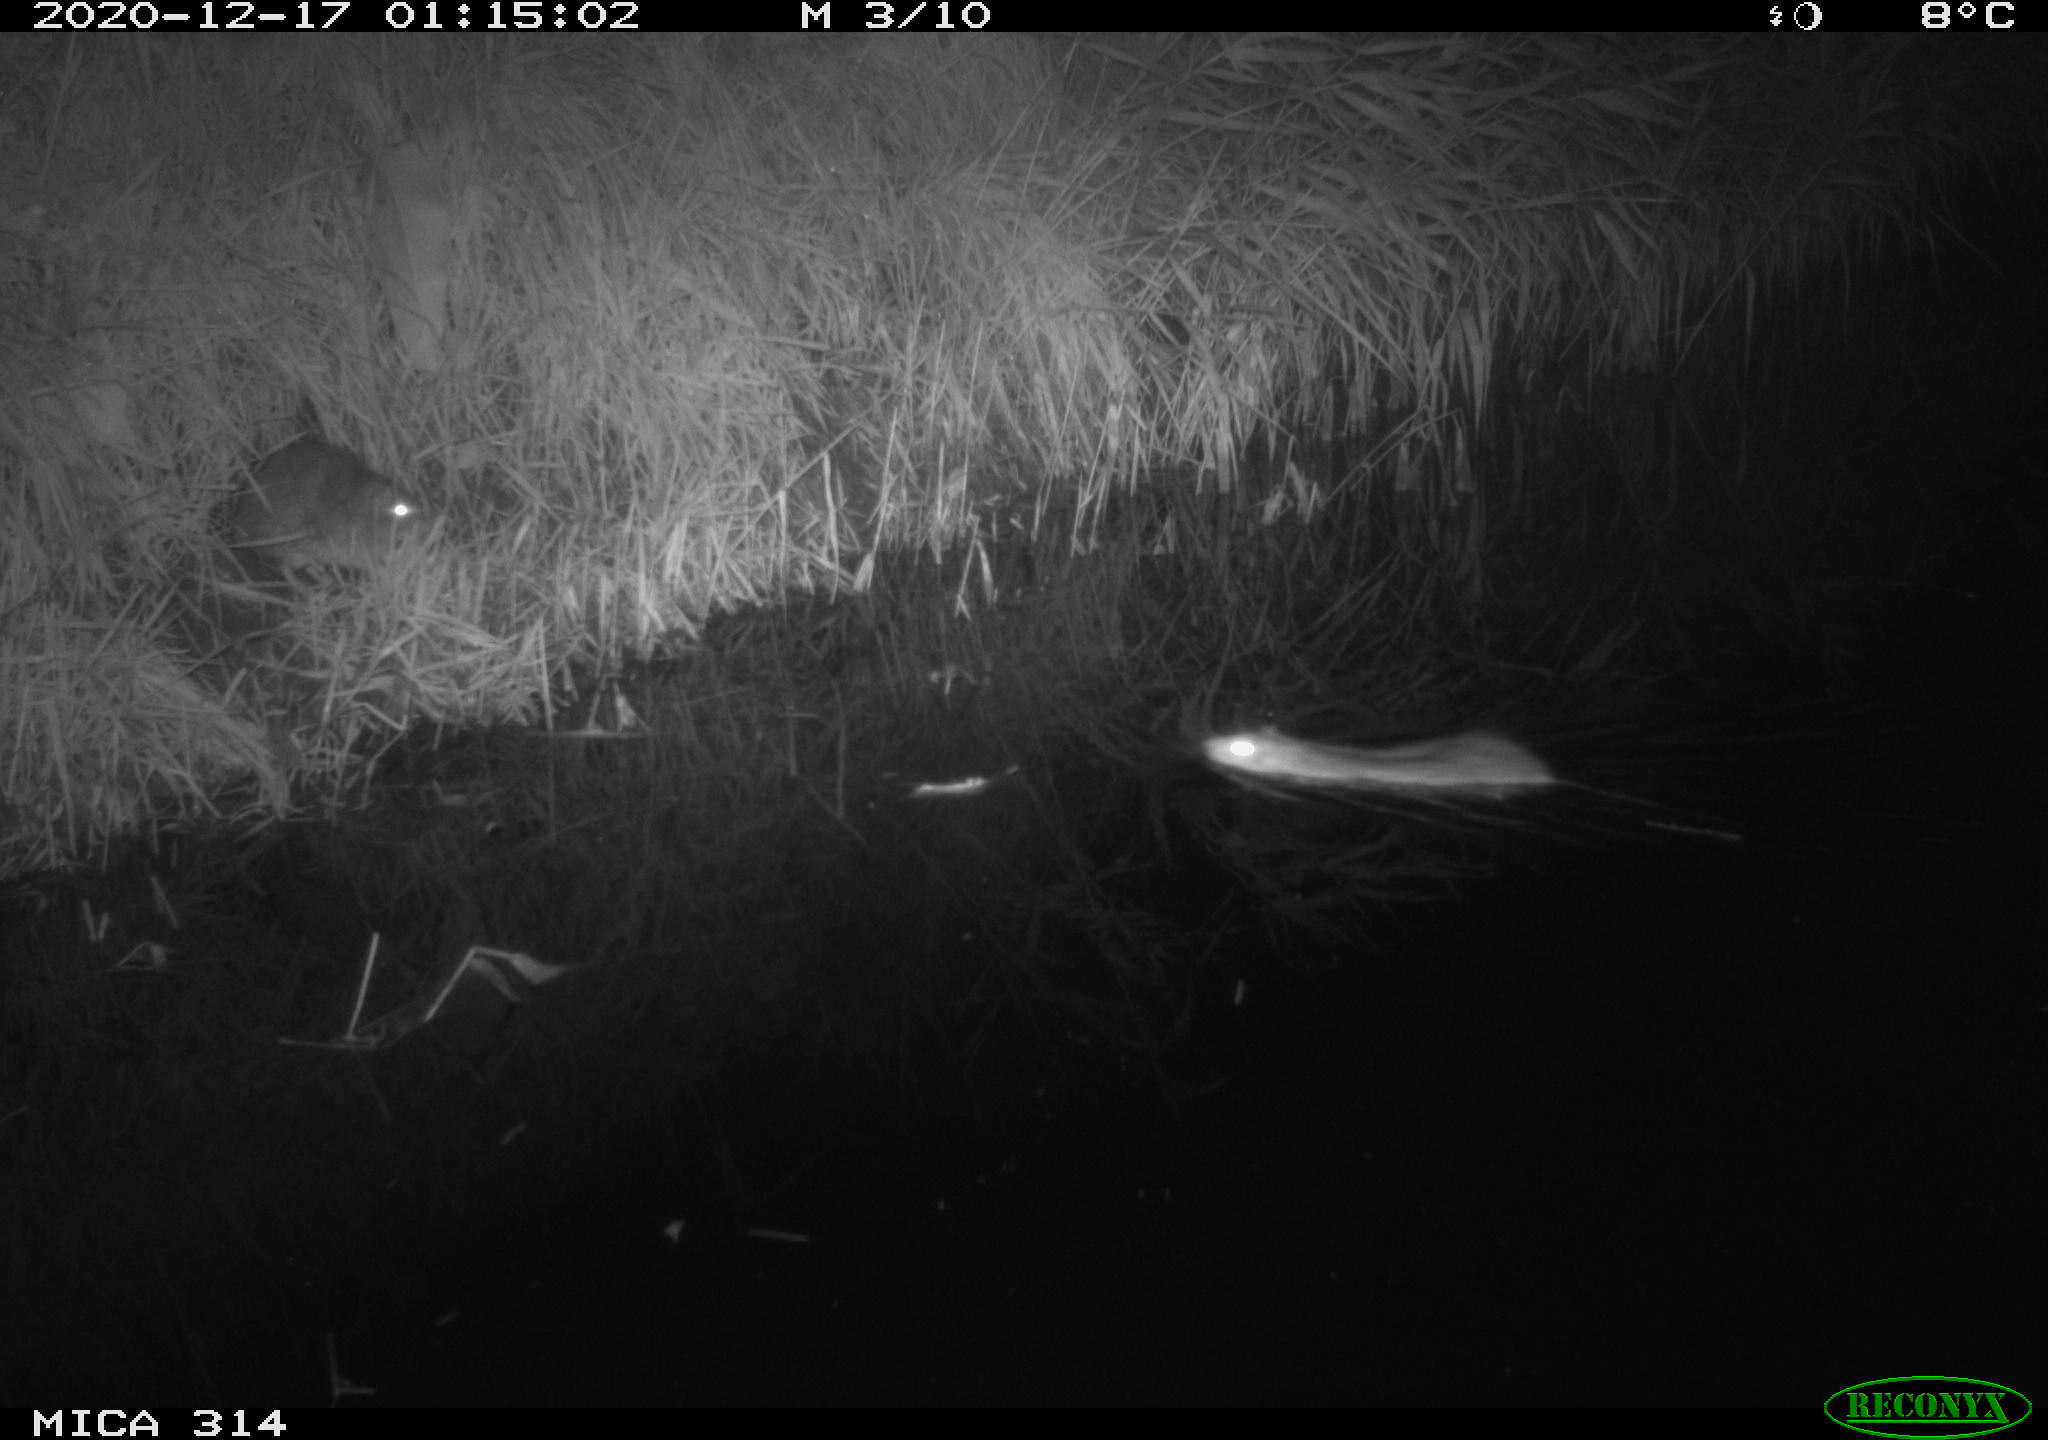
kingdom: Animalia
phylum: Chordata
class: Mammalia
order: Rodentia
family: Muridae
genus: Rattus
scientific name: Rattus norvegicus
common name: Brown rat
